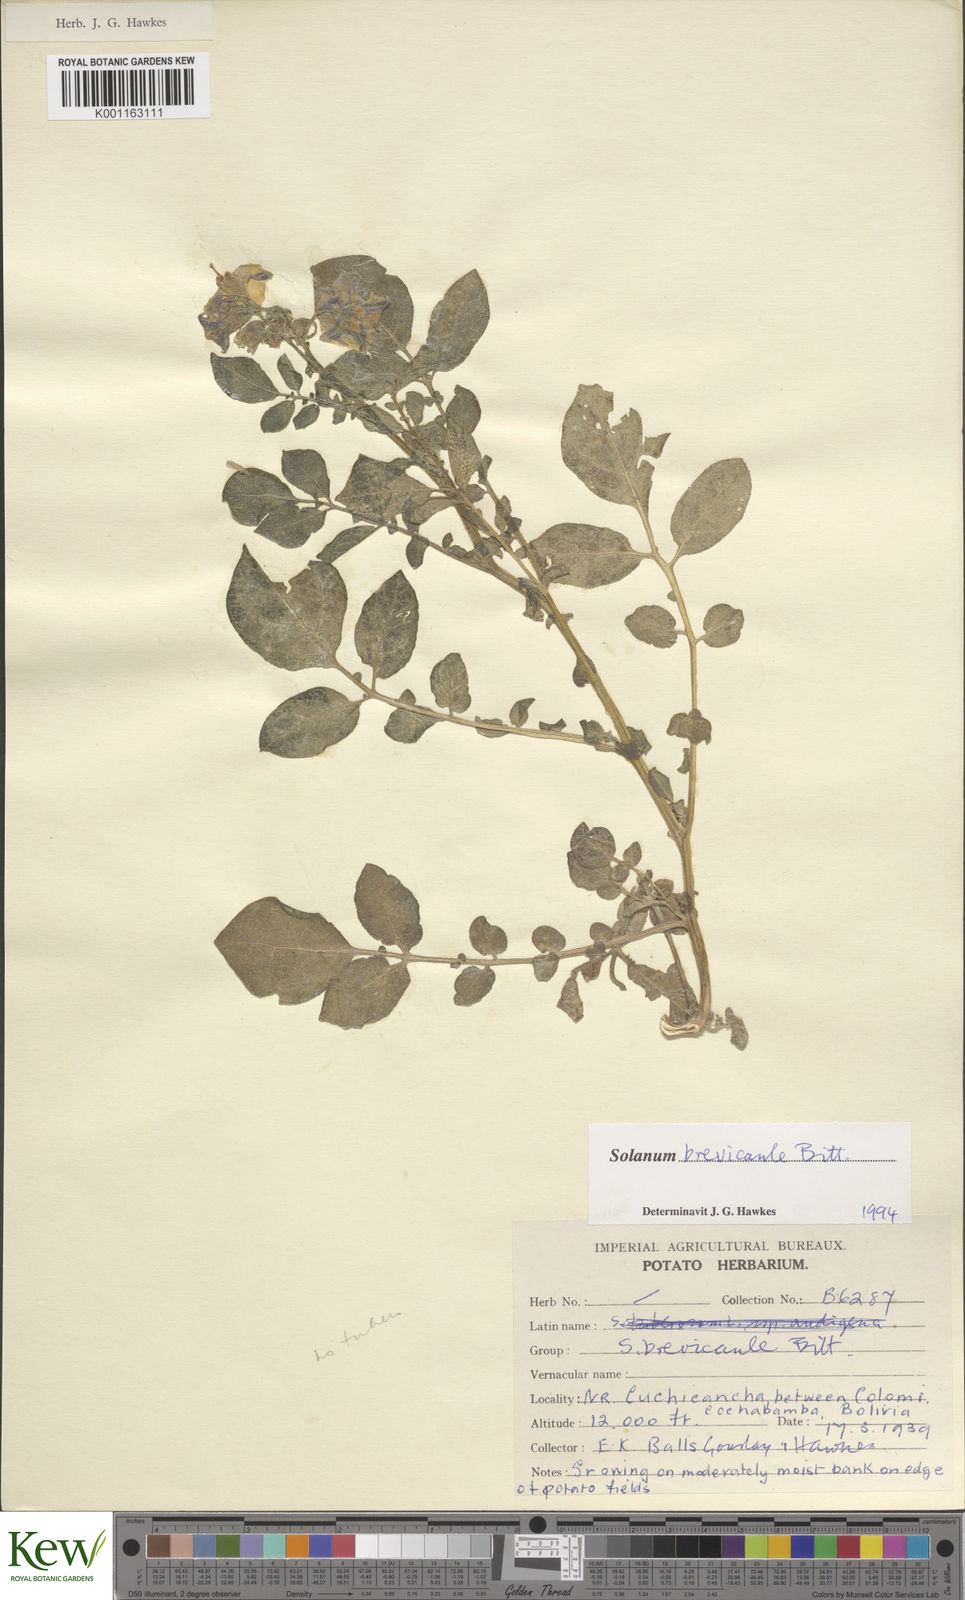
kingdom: Plantae
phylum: Tracheophyta
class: Magnoliopsida
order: Solanales
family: Solanaceae
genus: Solanum
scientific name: Solanum brevicaule
